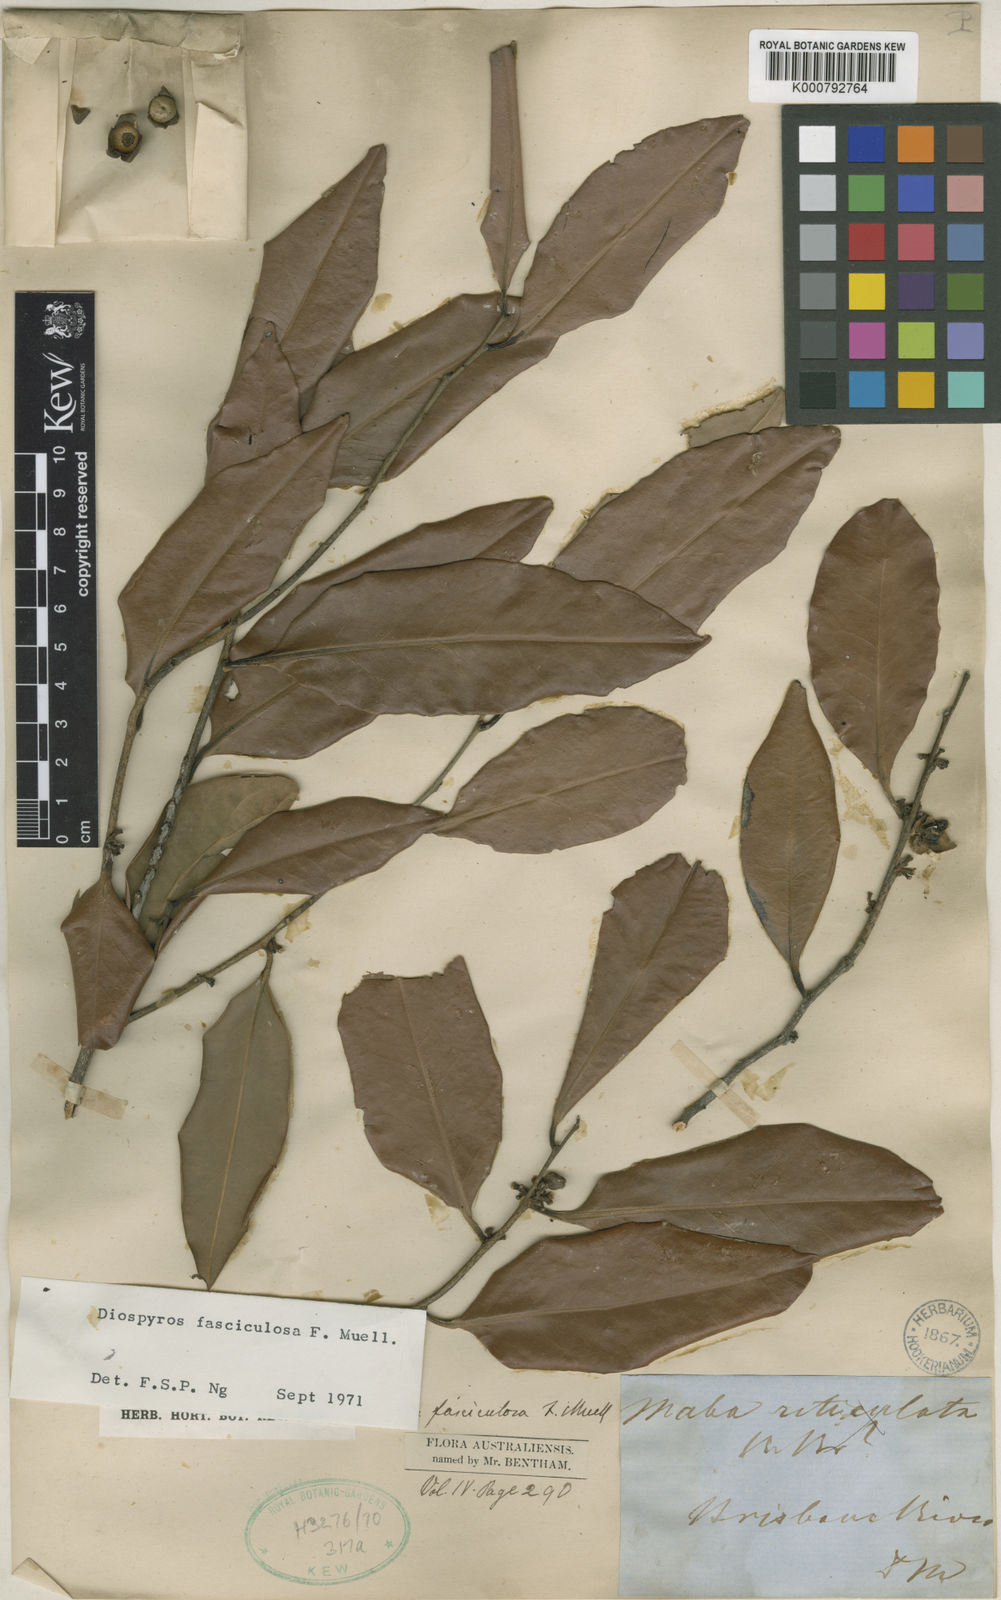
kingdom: Plantae
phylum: Tracheophyta
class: Magnoliopsida
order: Ericales
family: Ebenaceae
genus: Diospyros
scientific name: Diospyros fasciculosa
